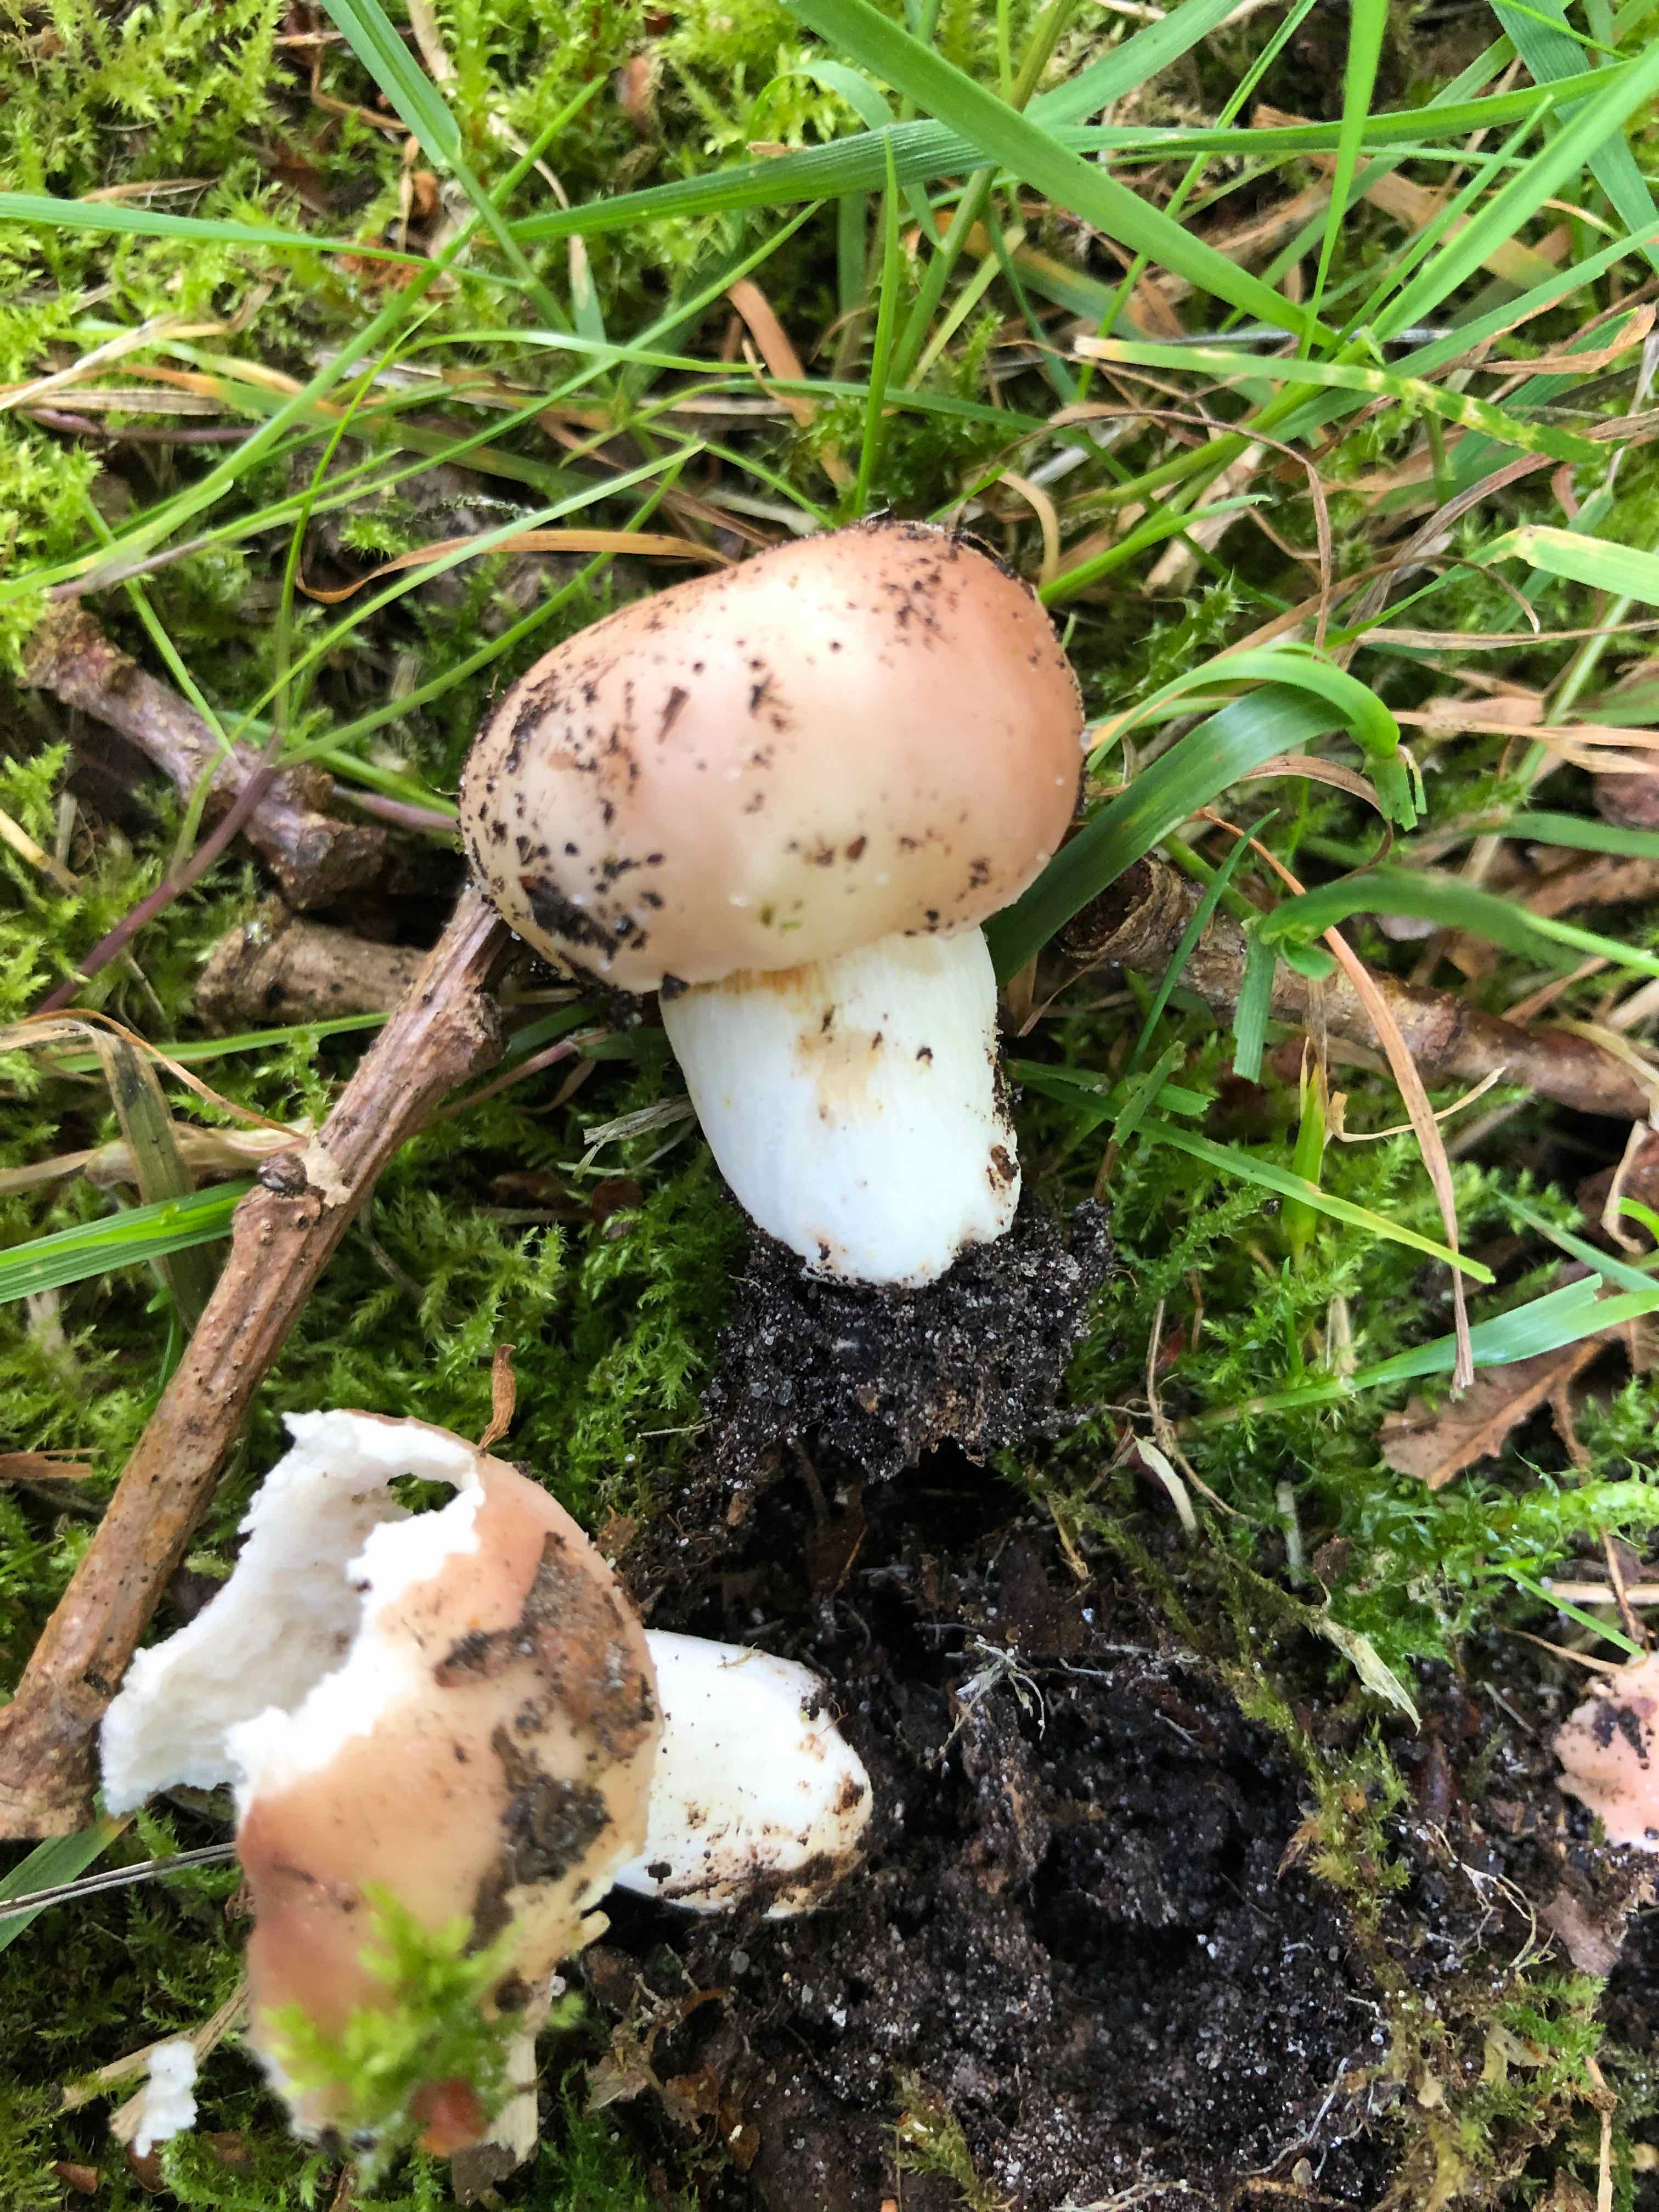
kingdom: Fungi
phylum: Basidiomycota
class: Agaricomycetes
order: Russulales
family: Russulaceae
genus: Russula
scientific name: Russula
